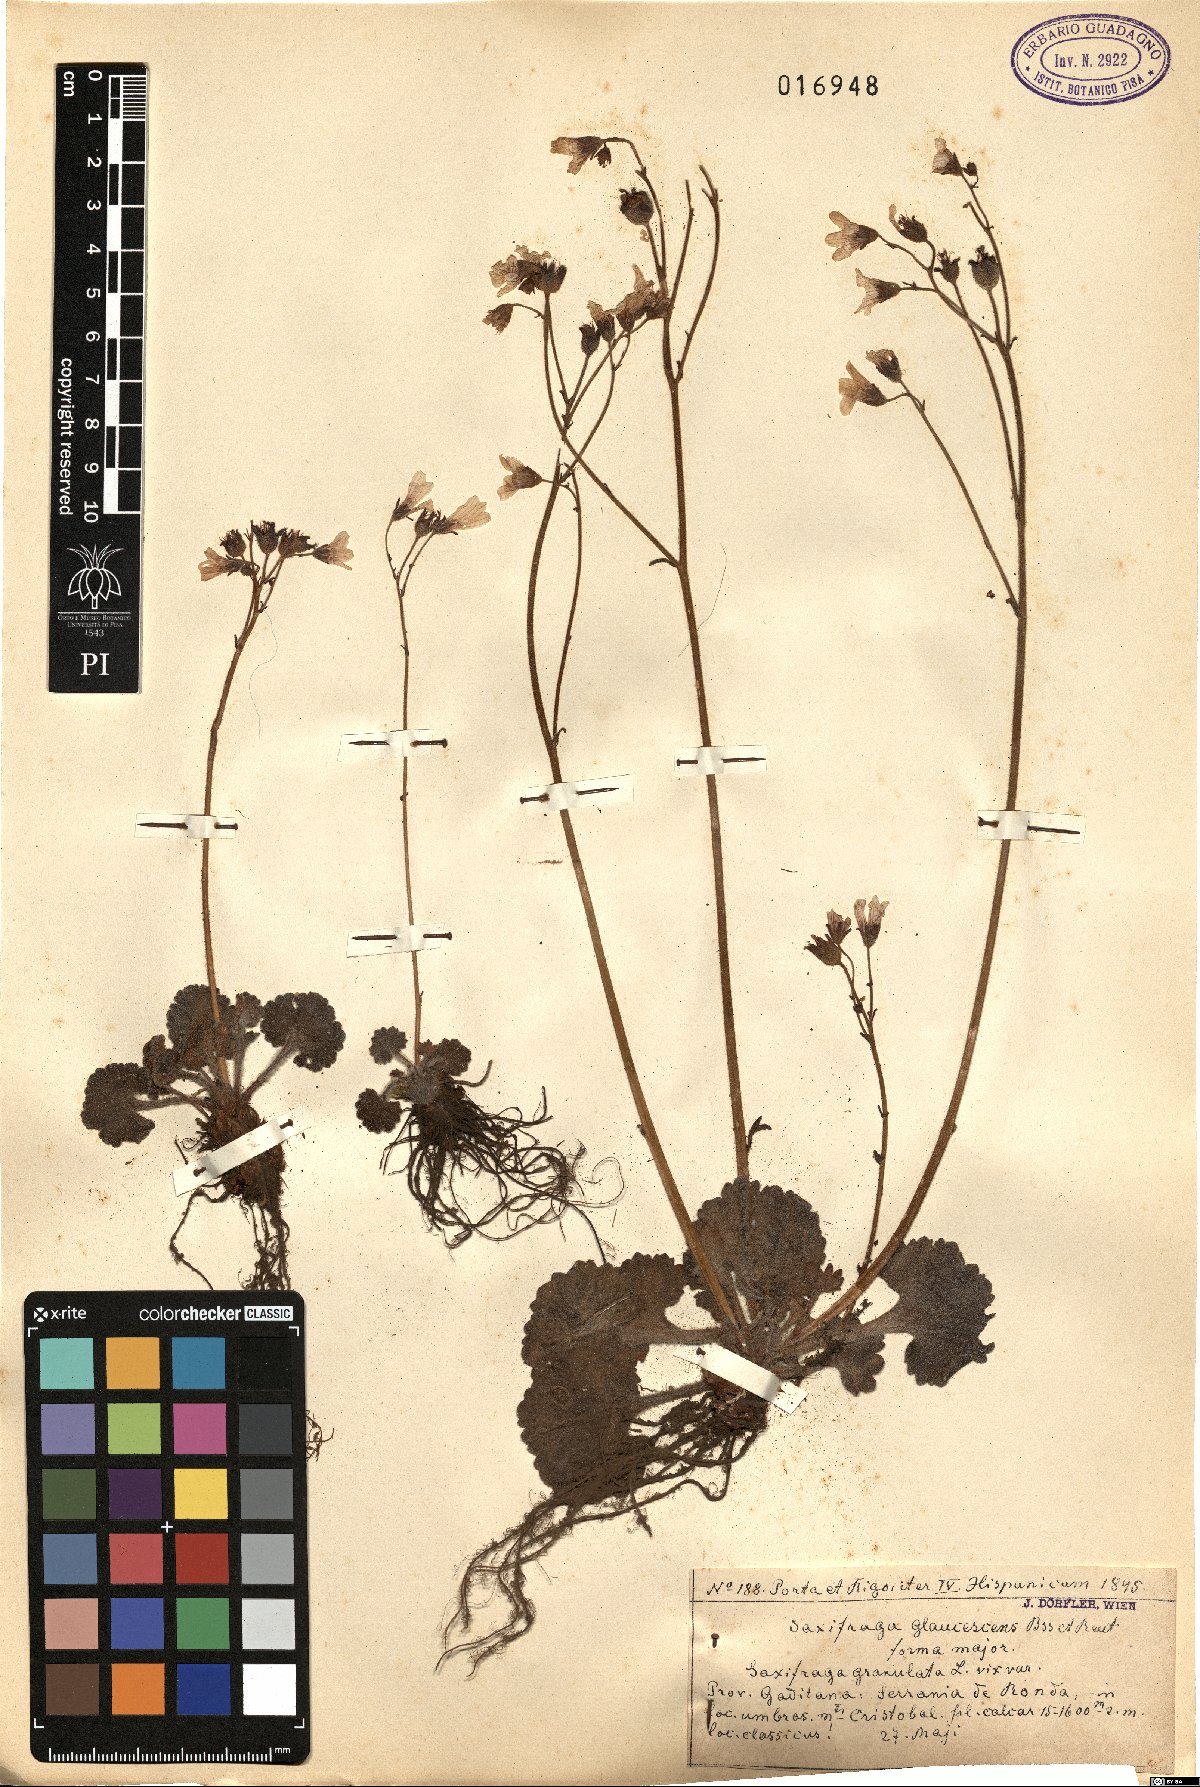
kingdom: Plantae
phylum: Tracheophyta
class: Magnoliopsida
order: Saxifragales
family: Saxifragaceae
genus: Saxifraga
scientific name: Saxifraga granulata
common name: Meadow saxifrage
